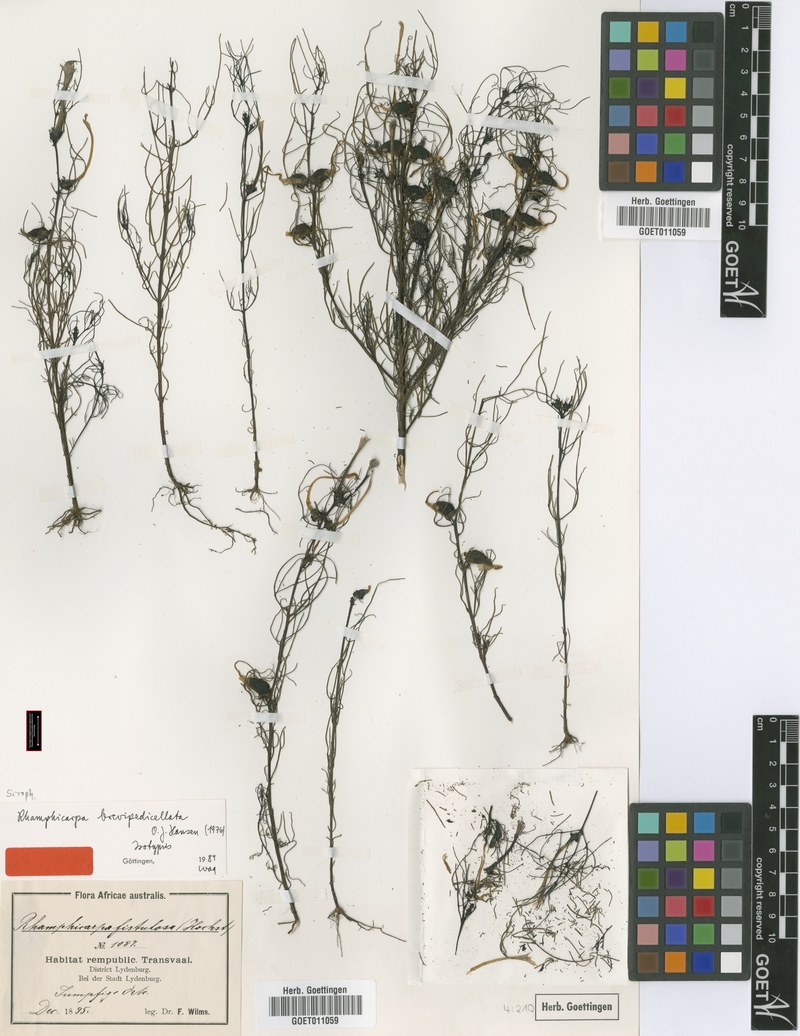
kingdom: Plantae
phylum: Tracheophyta
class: Magnoliopsida
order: Lamiales
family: Orobanchaceae
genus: Rhamphicarpa
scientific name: Rhamphicarpa brevipedicellata
